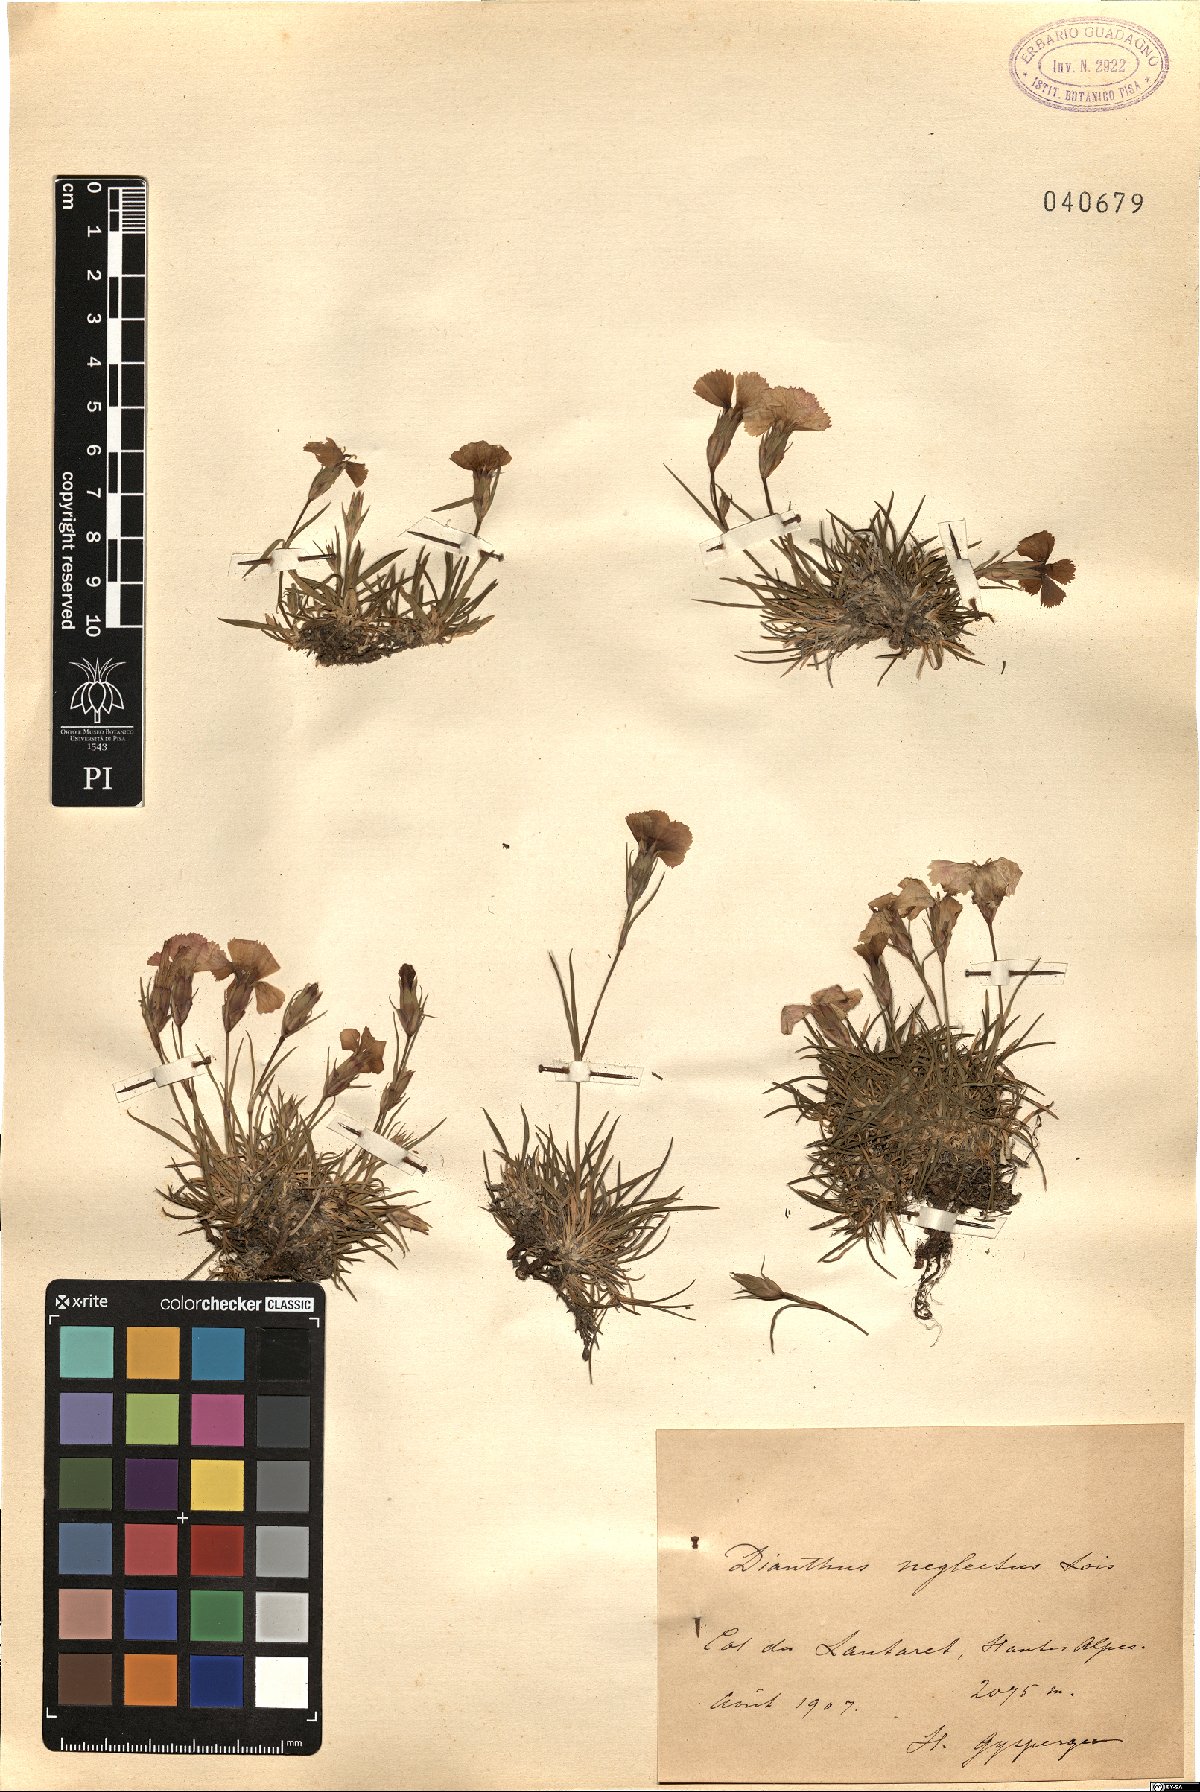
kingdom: Plantae
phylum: Tracheophyta
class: Magnoliopsida
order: Caryophyllales
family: Caryophyllaceae
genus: Dianthus
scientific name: Dianthus seguieri
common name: Ragged pink
